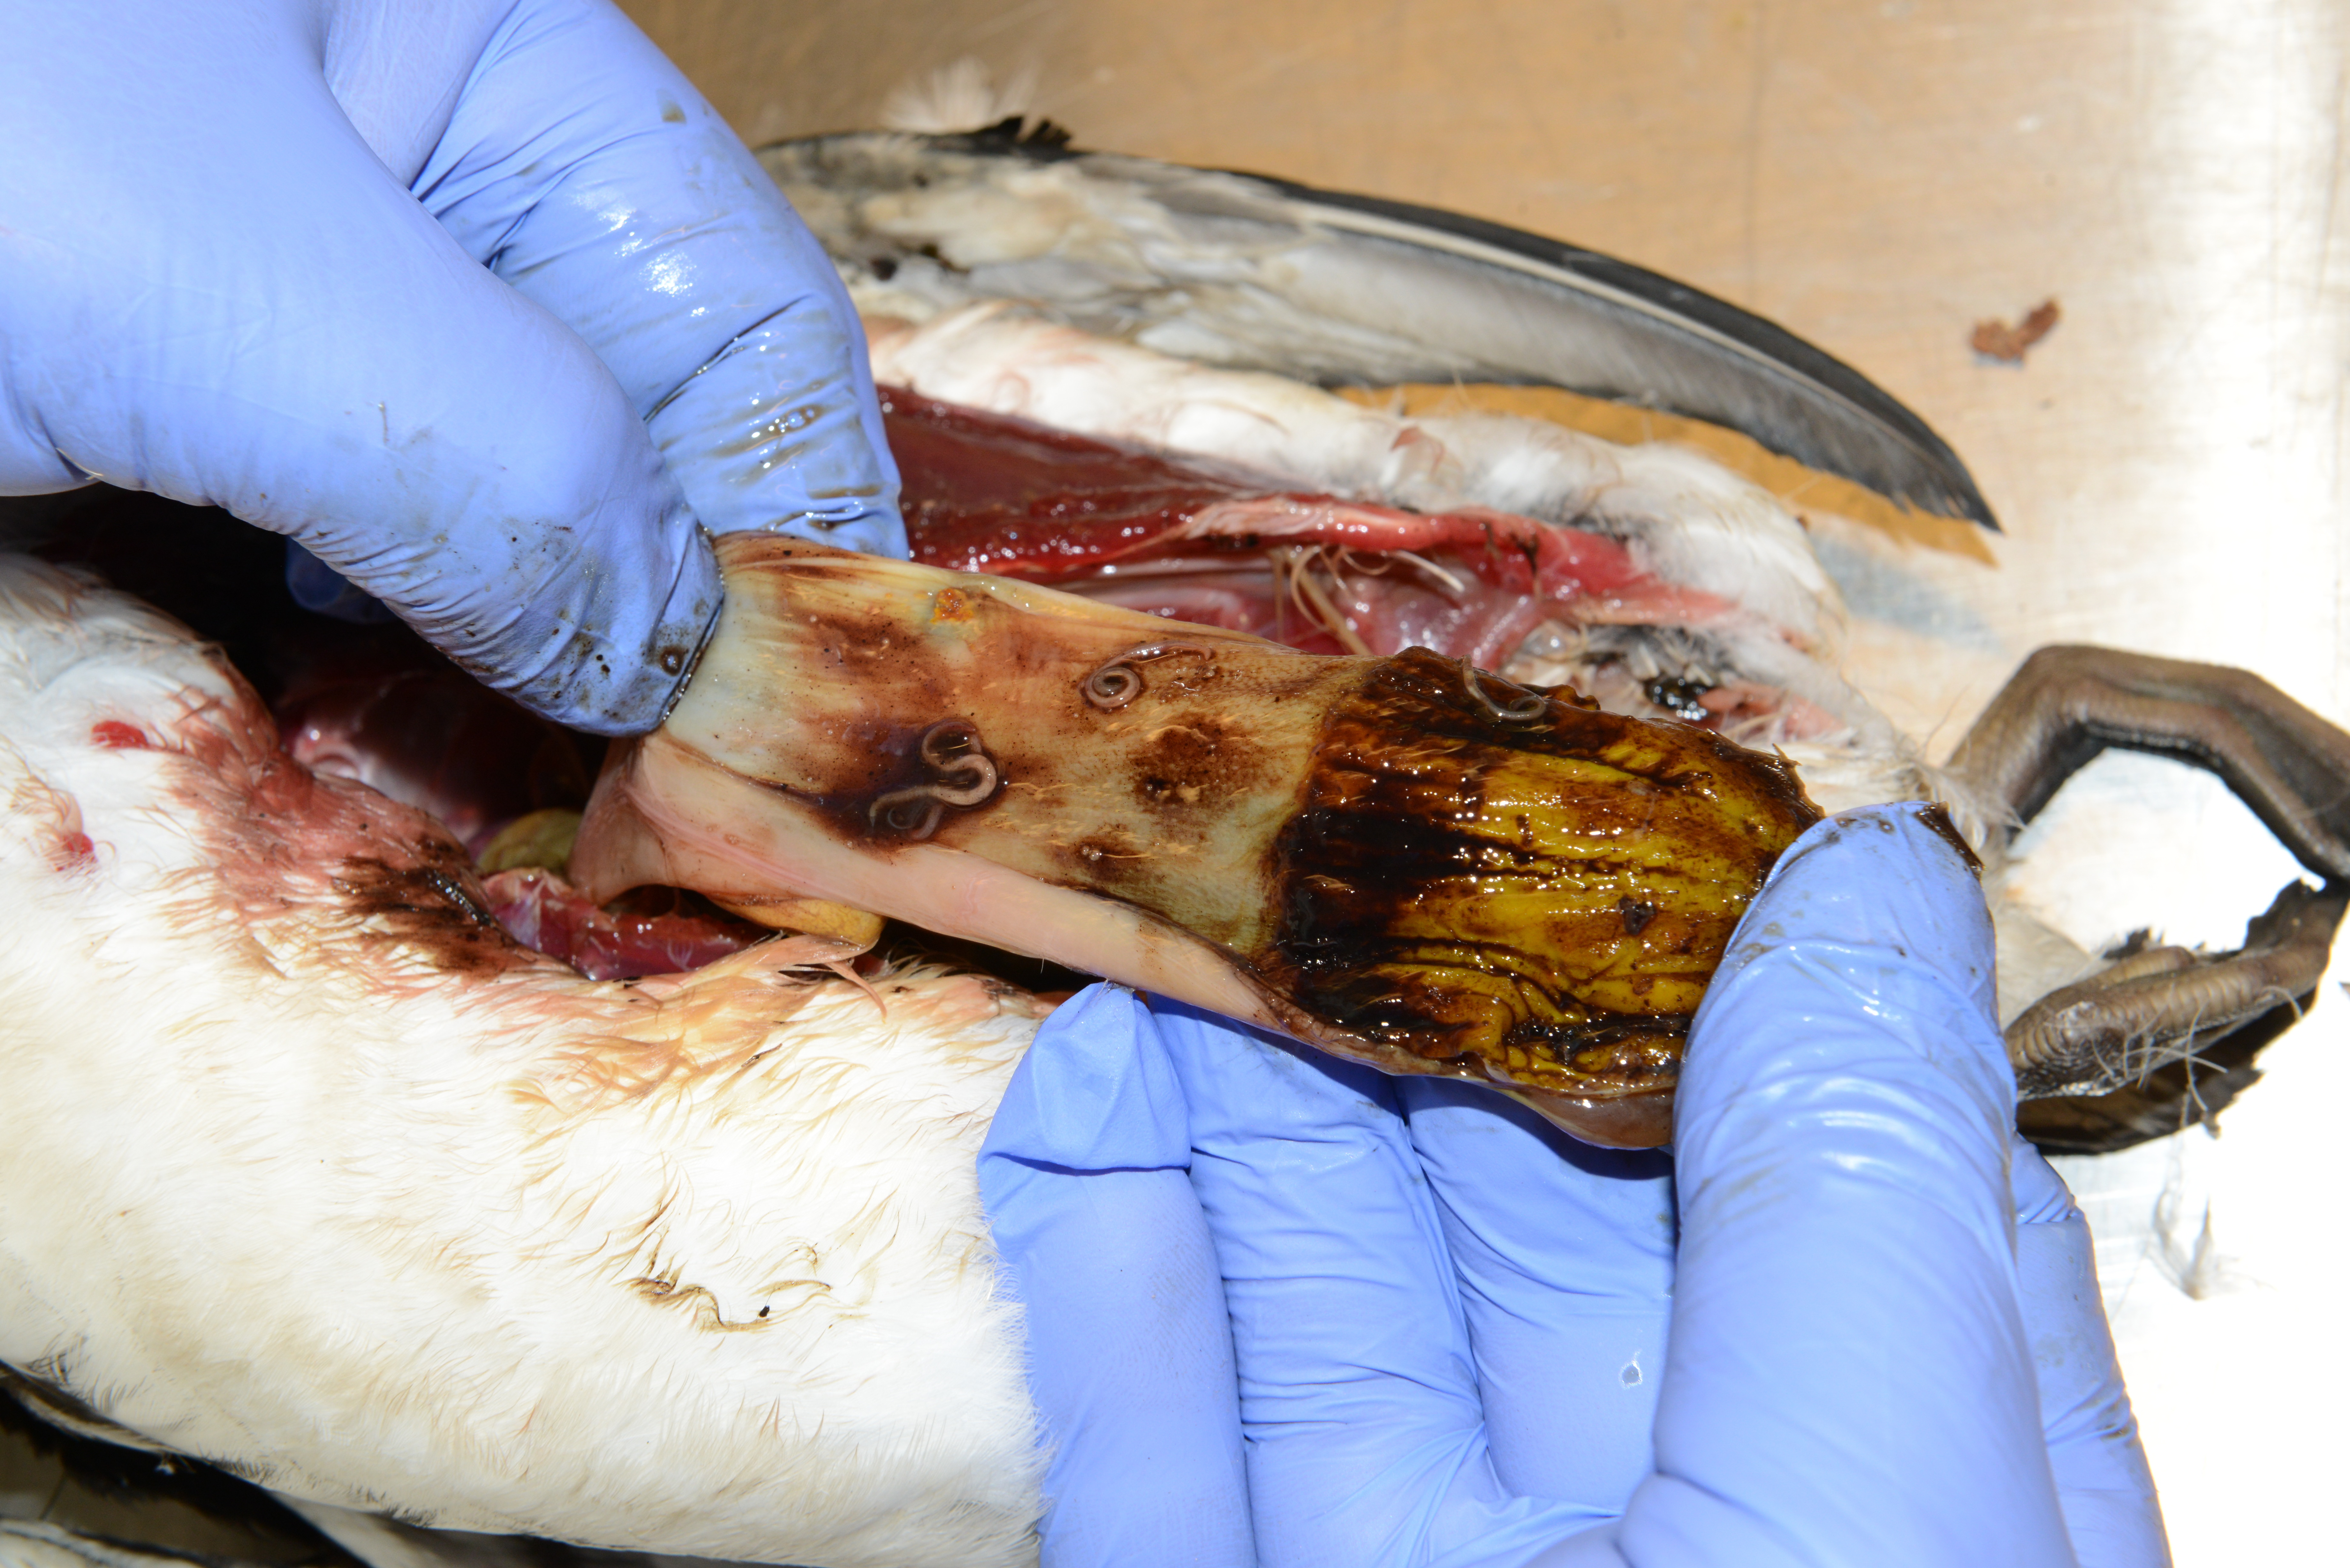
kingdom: Animalia
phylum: Chordata
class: Aves
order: Charadriiformes
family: Alcidae
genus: Uria
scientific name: Uria aalge
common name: Common murre
